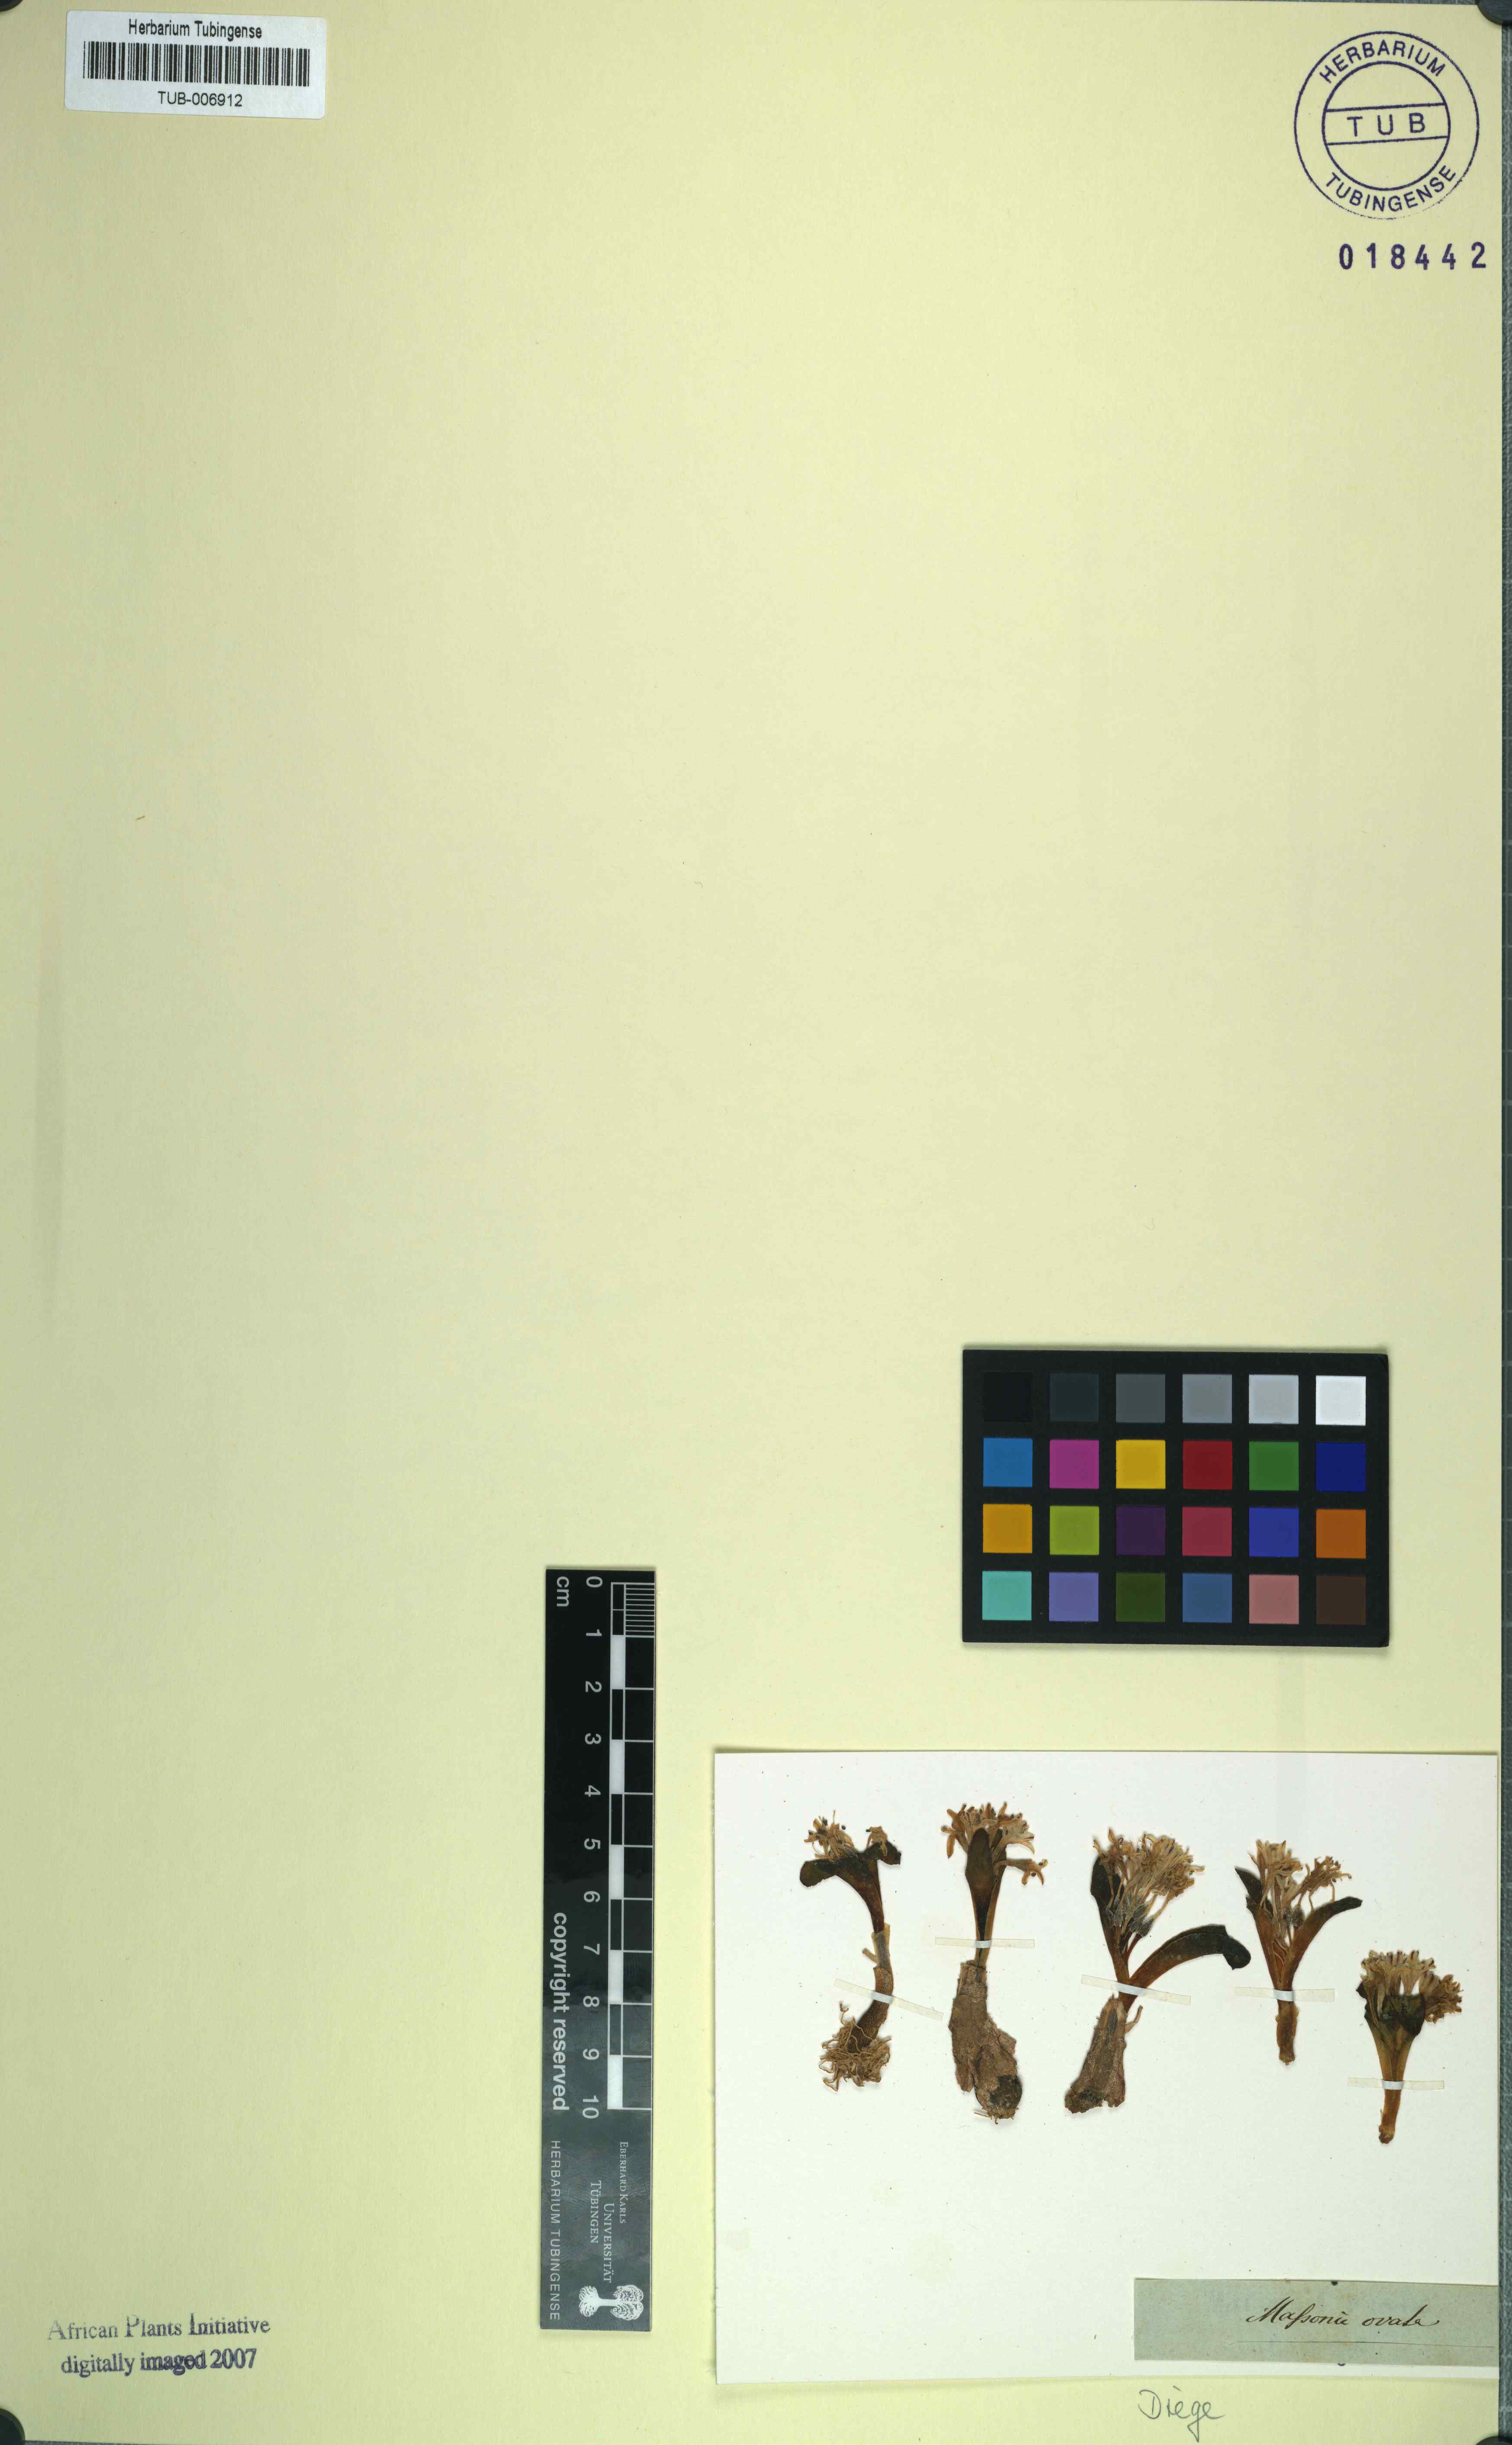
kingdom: Plantae
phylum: Tracheophyta
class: Liliopsida
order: Asparagales
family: Asparagaceae
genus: Lachenalia
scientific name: Lachenalia ensifolia
